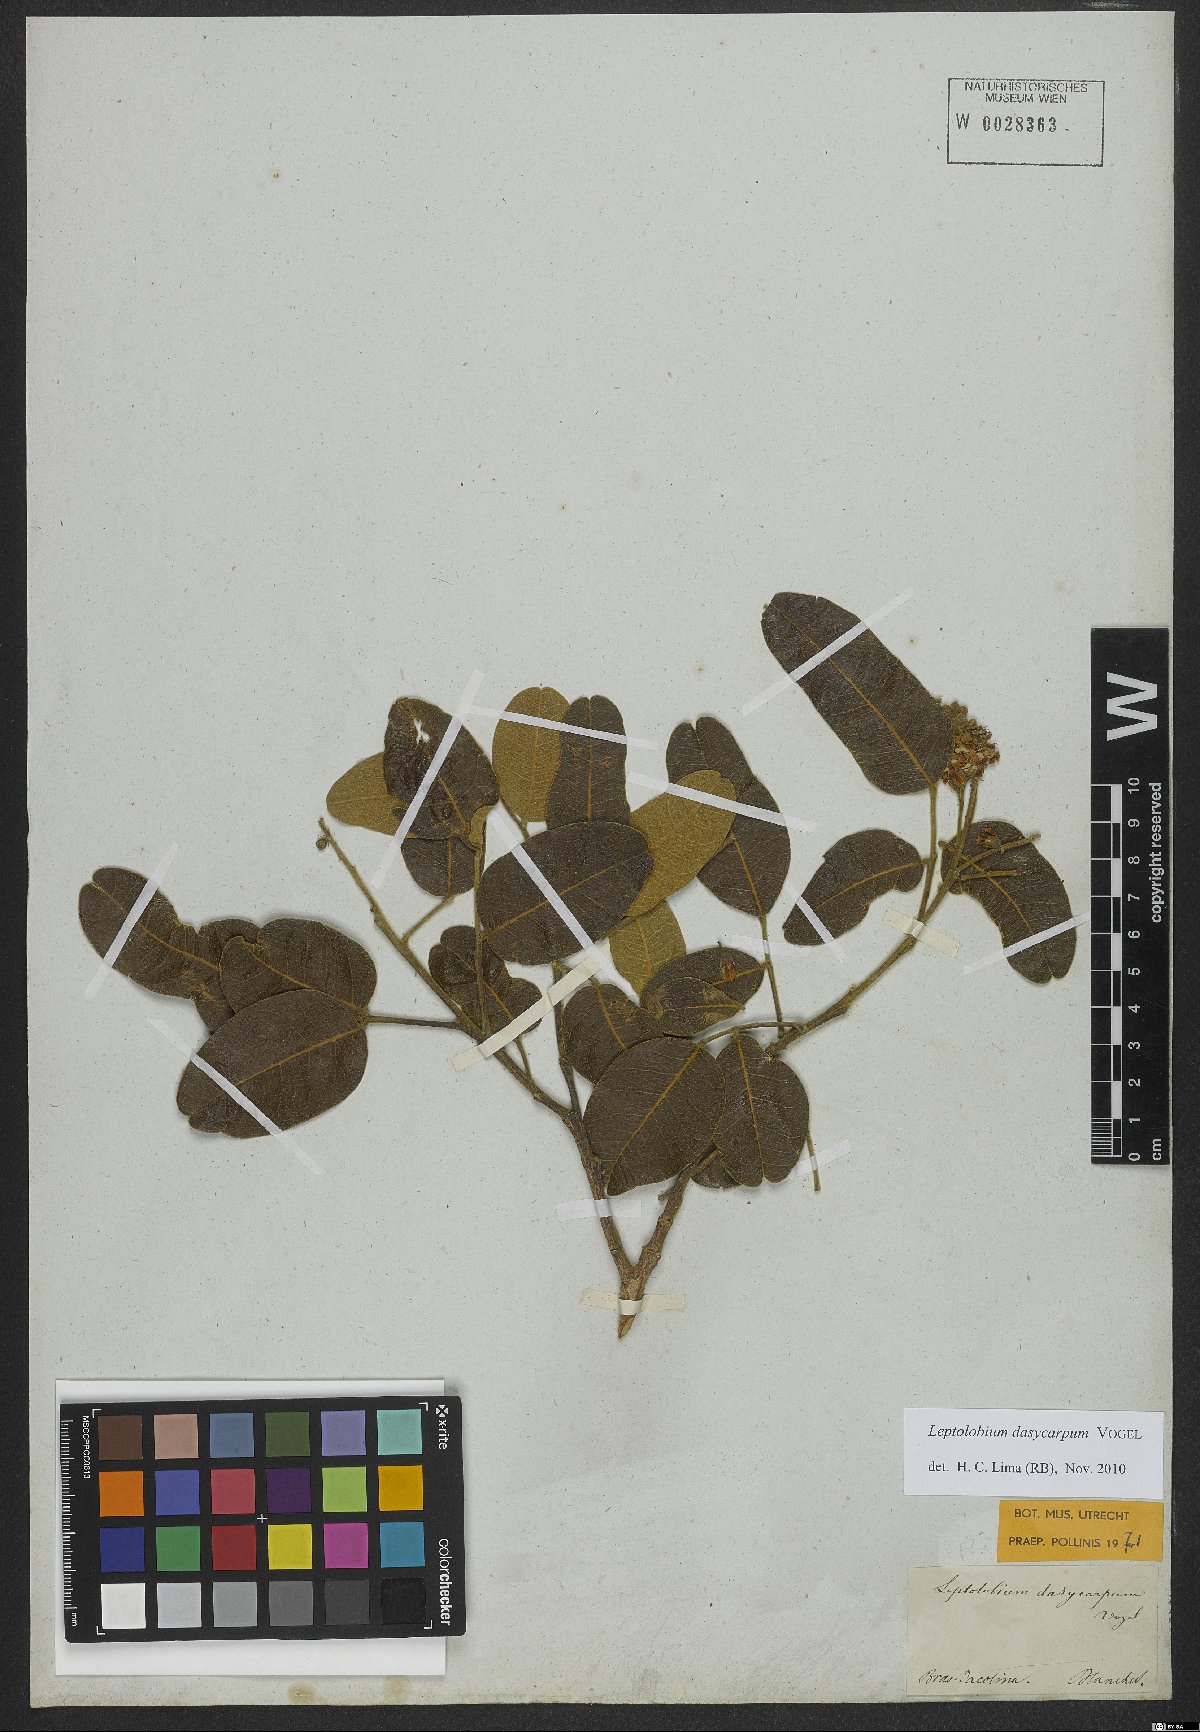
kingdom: Plantae
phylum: Tracheophyta
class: Magnoliopsida
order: Fabales
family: Fabaceae
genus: Leptolobium
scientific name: Leptolobium dasycarpum
